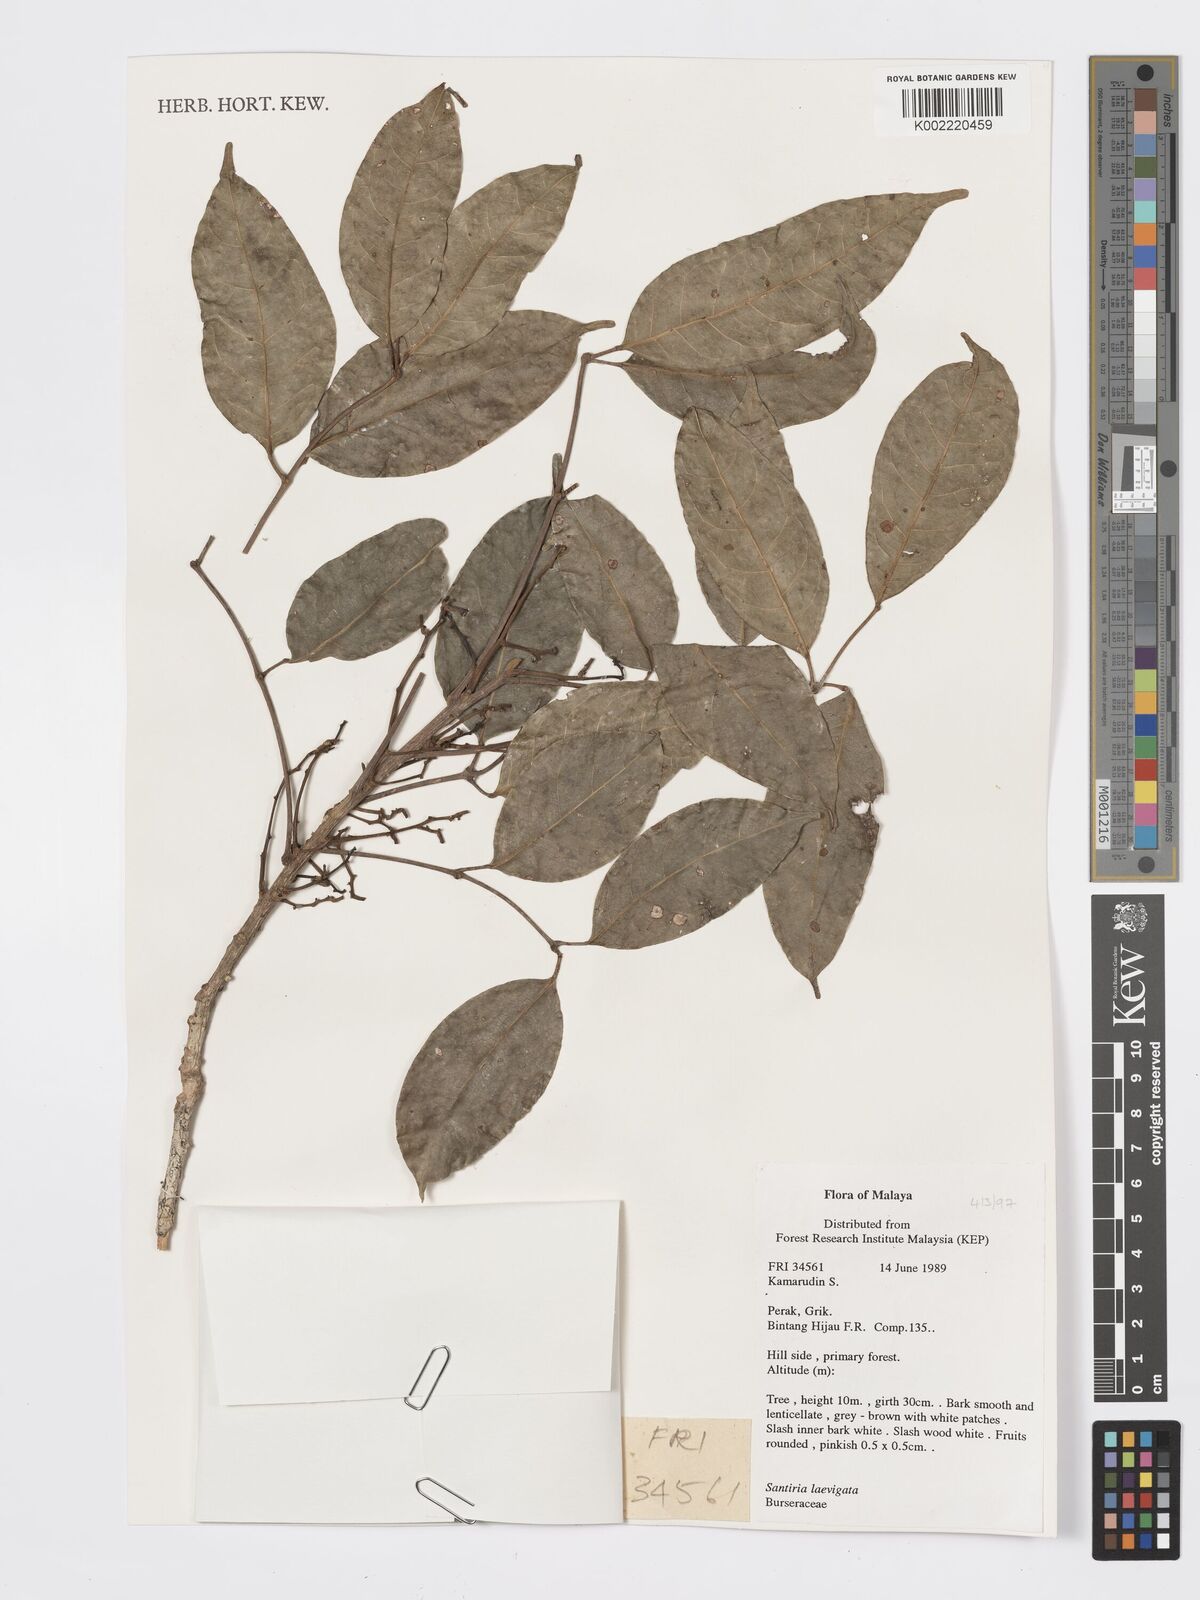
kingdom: Plantae
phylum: Tracheophyta
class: Magnoliopsida
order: Sapindales
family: Burseraceae
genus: Santiria
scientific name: Santiria laevigata
